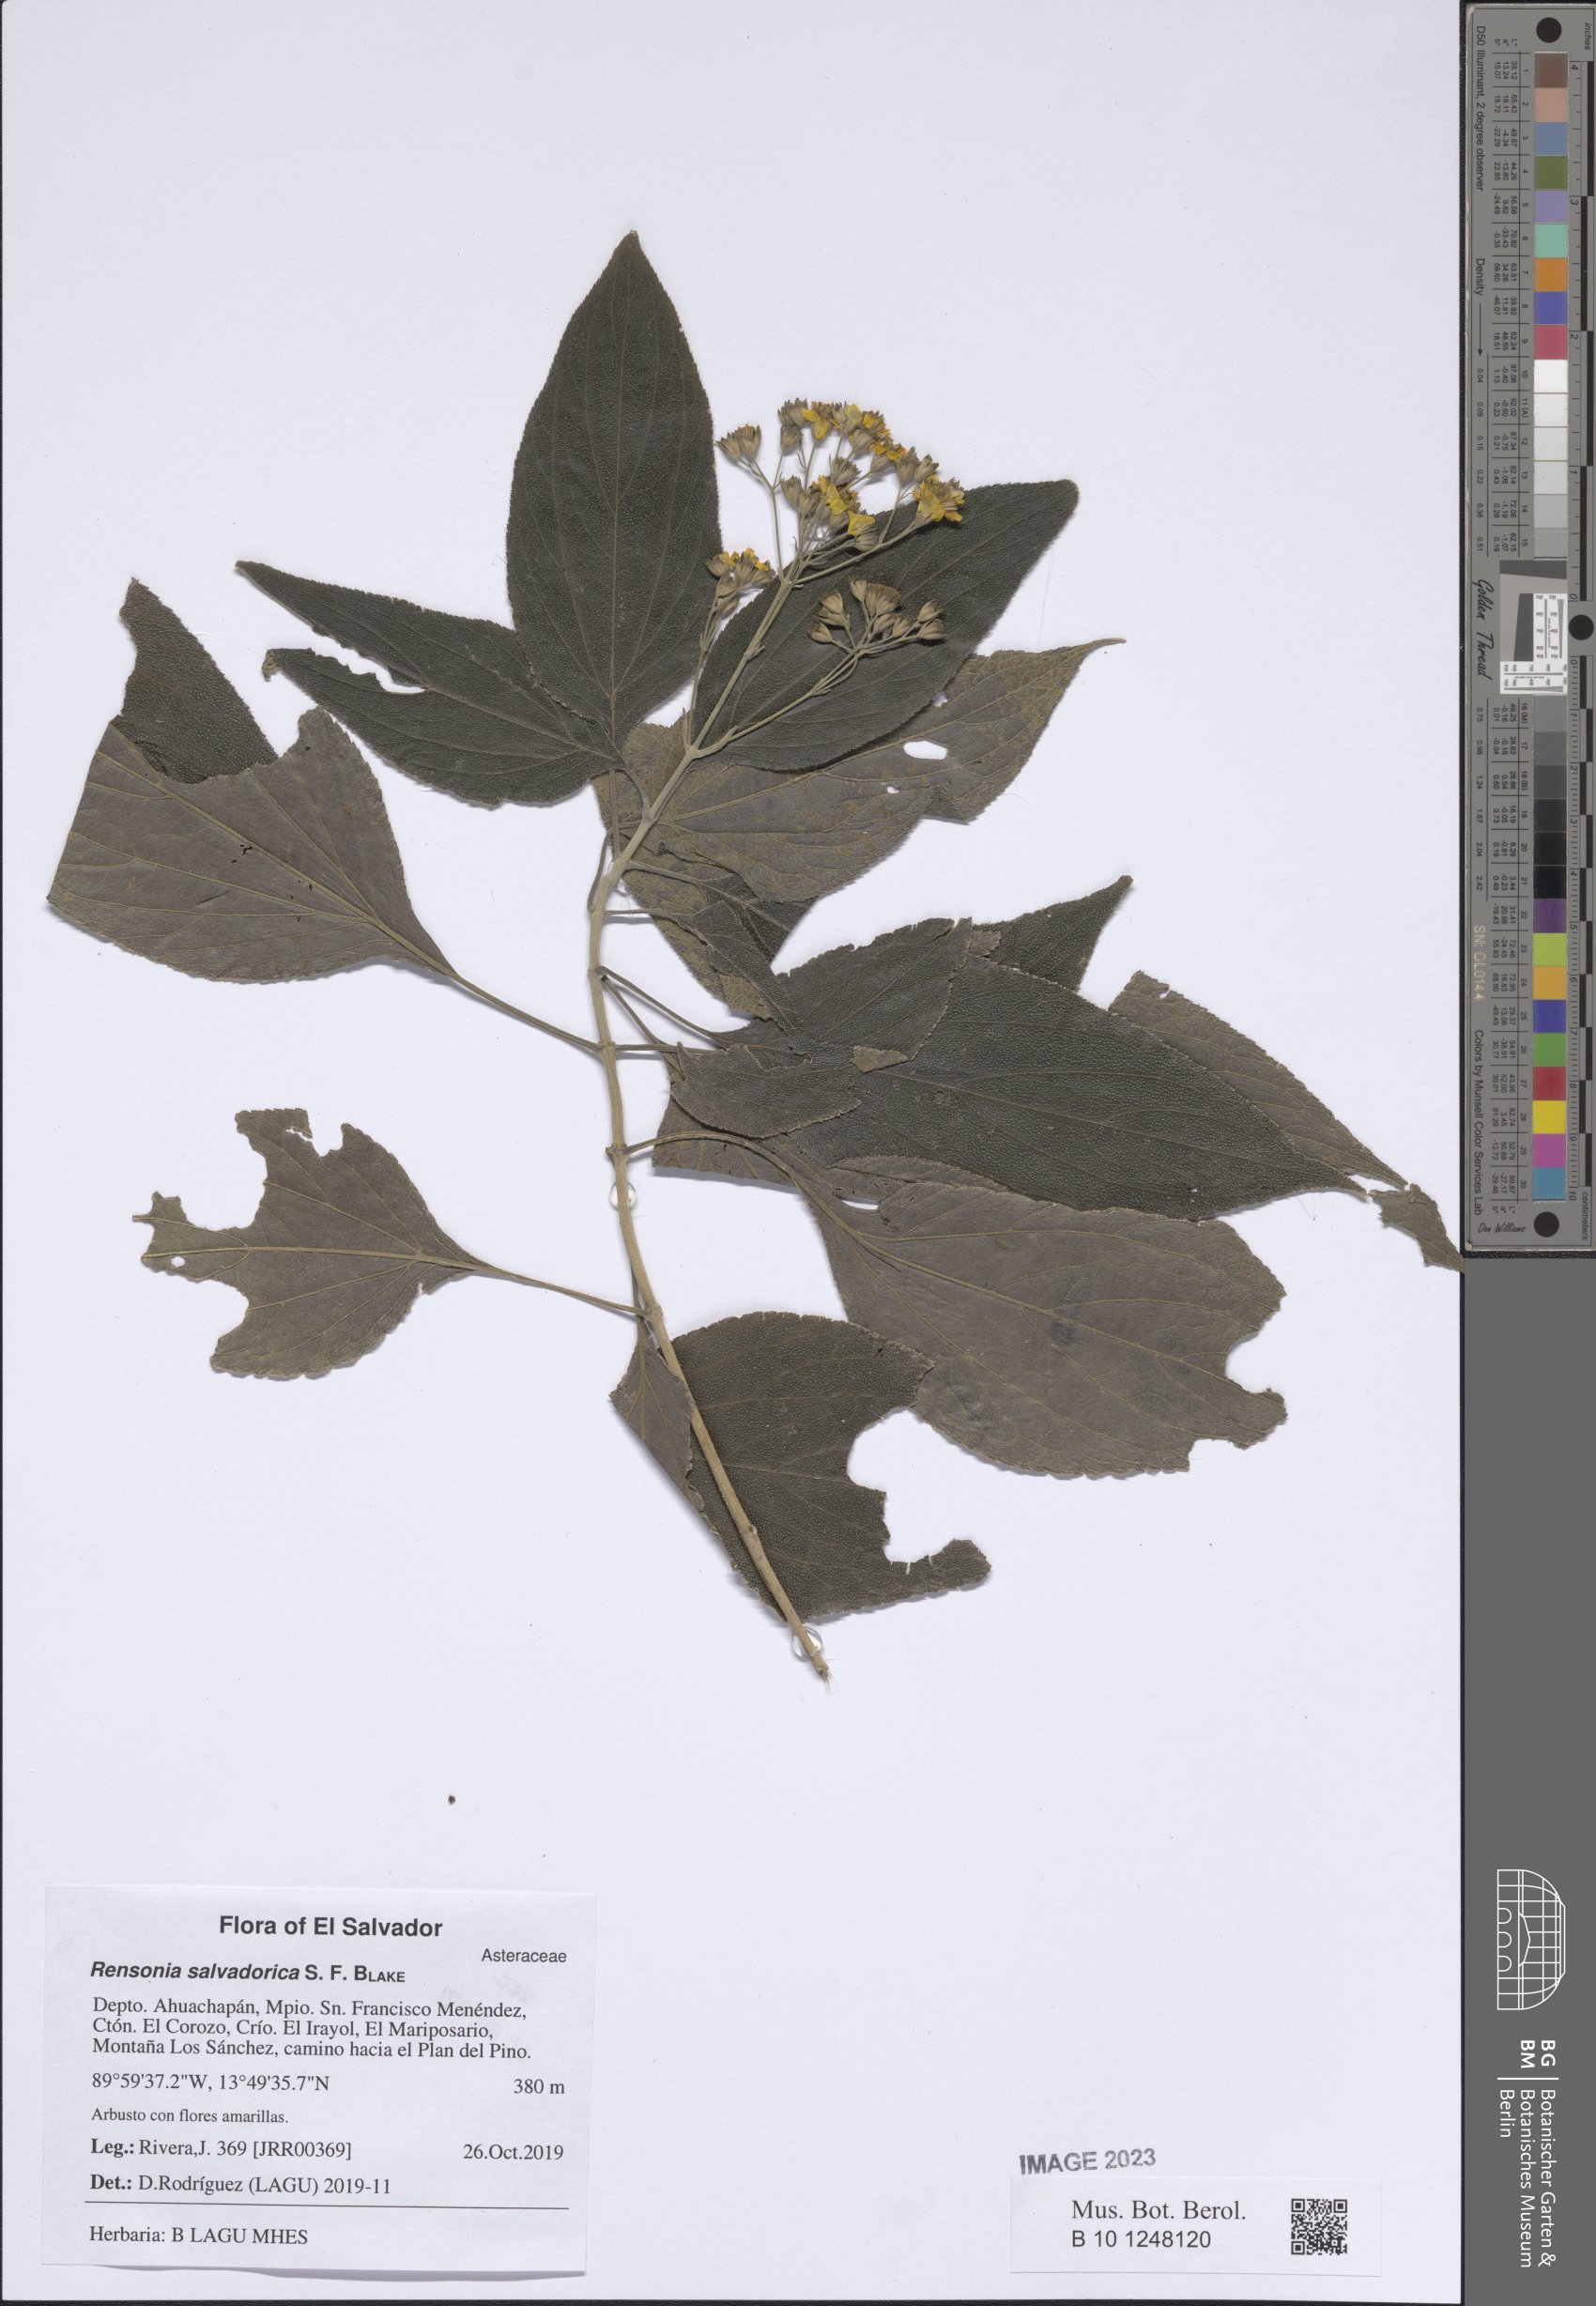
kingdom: Plantae
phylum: Tracheophyta
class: Magnoliopsida
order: Asterales
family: Asteraceae
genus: Rensonia
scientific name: Rensonia salvadorica
